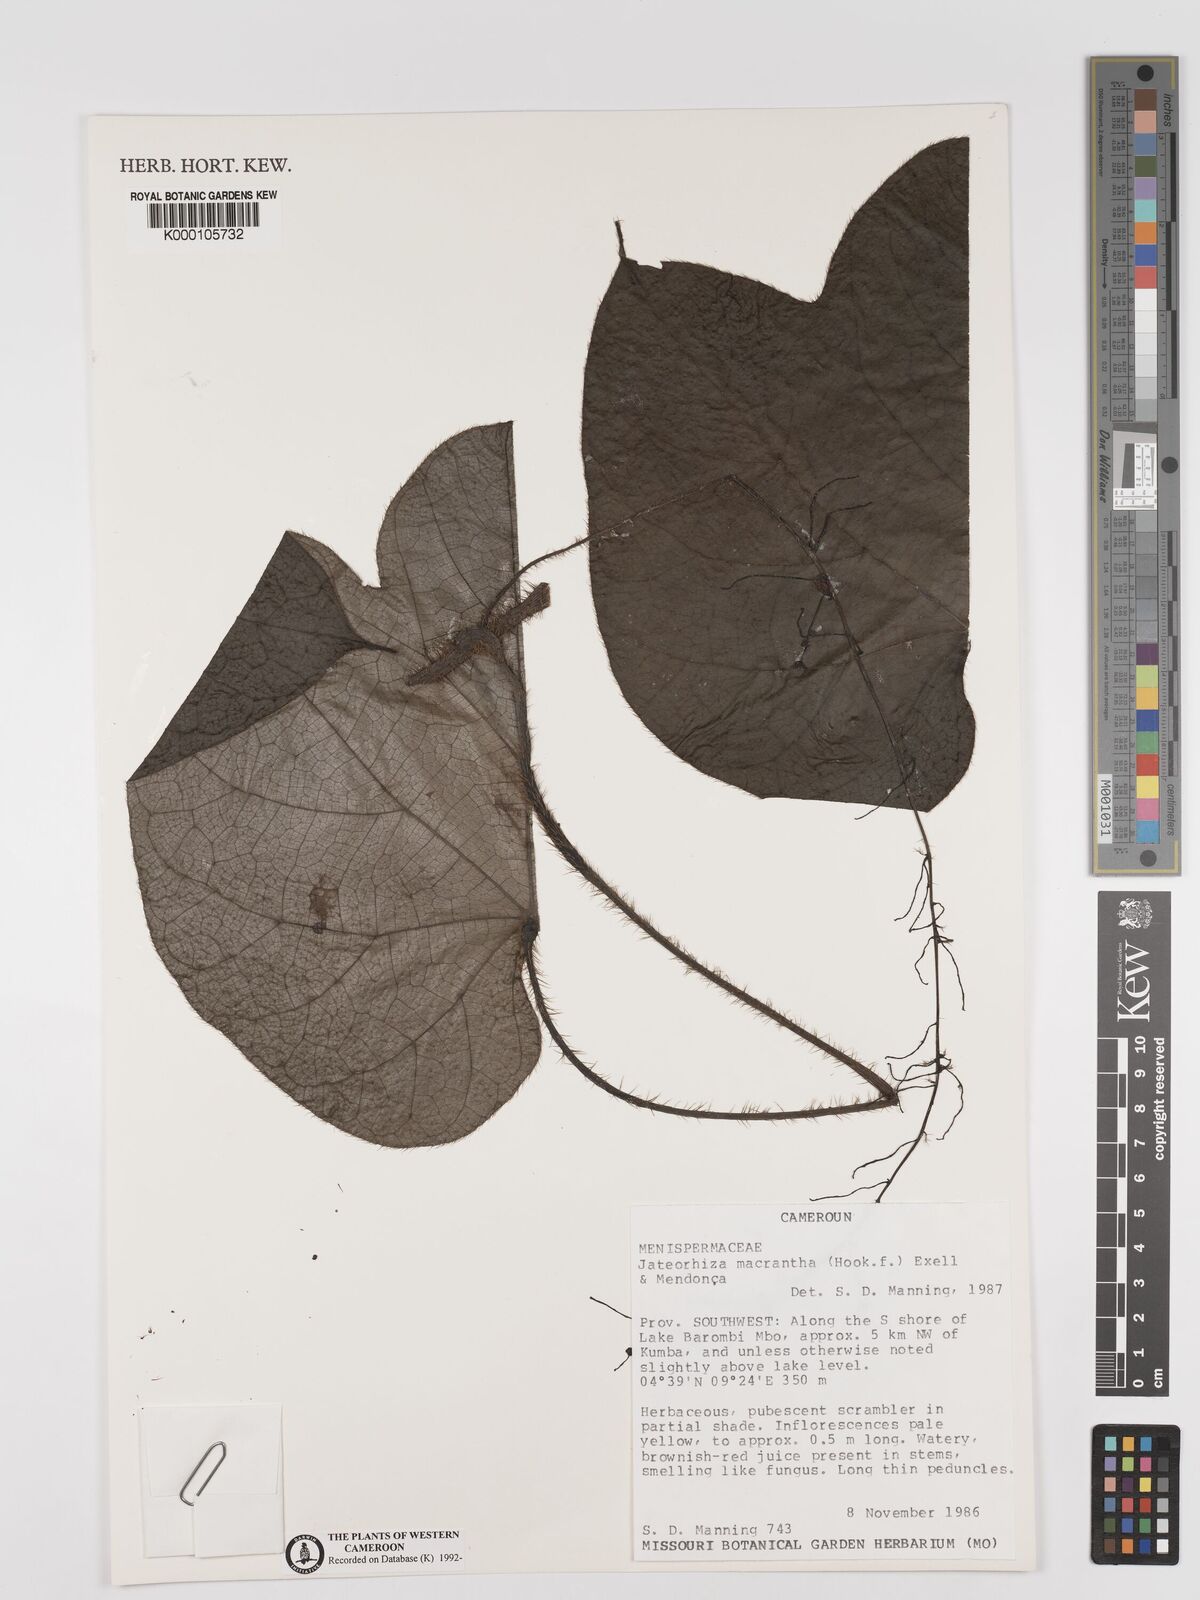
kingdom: Plantae
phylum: Tracheophyta
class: Magnoliopsida
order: Ranunculales
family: Menispermaceae
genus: Jateorhiza
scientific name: Jateorhiza
